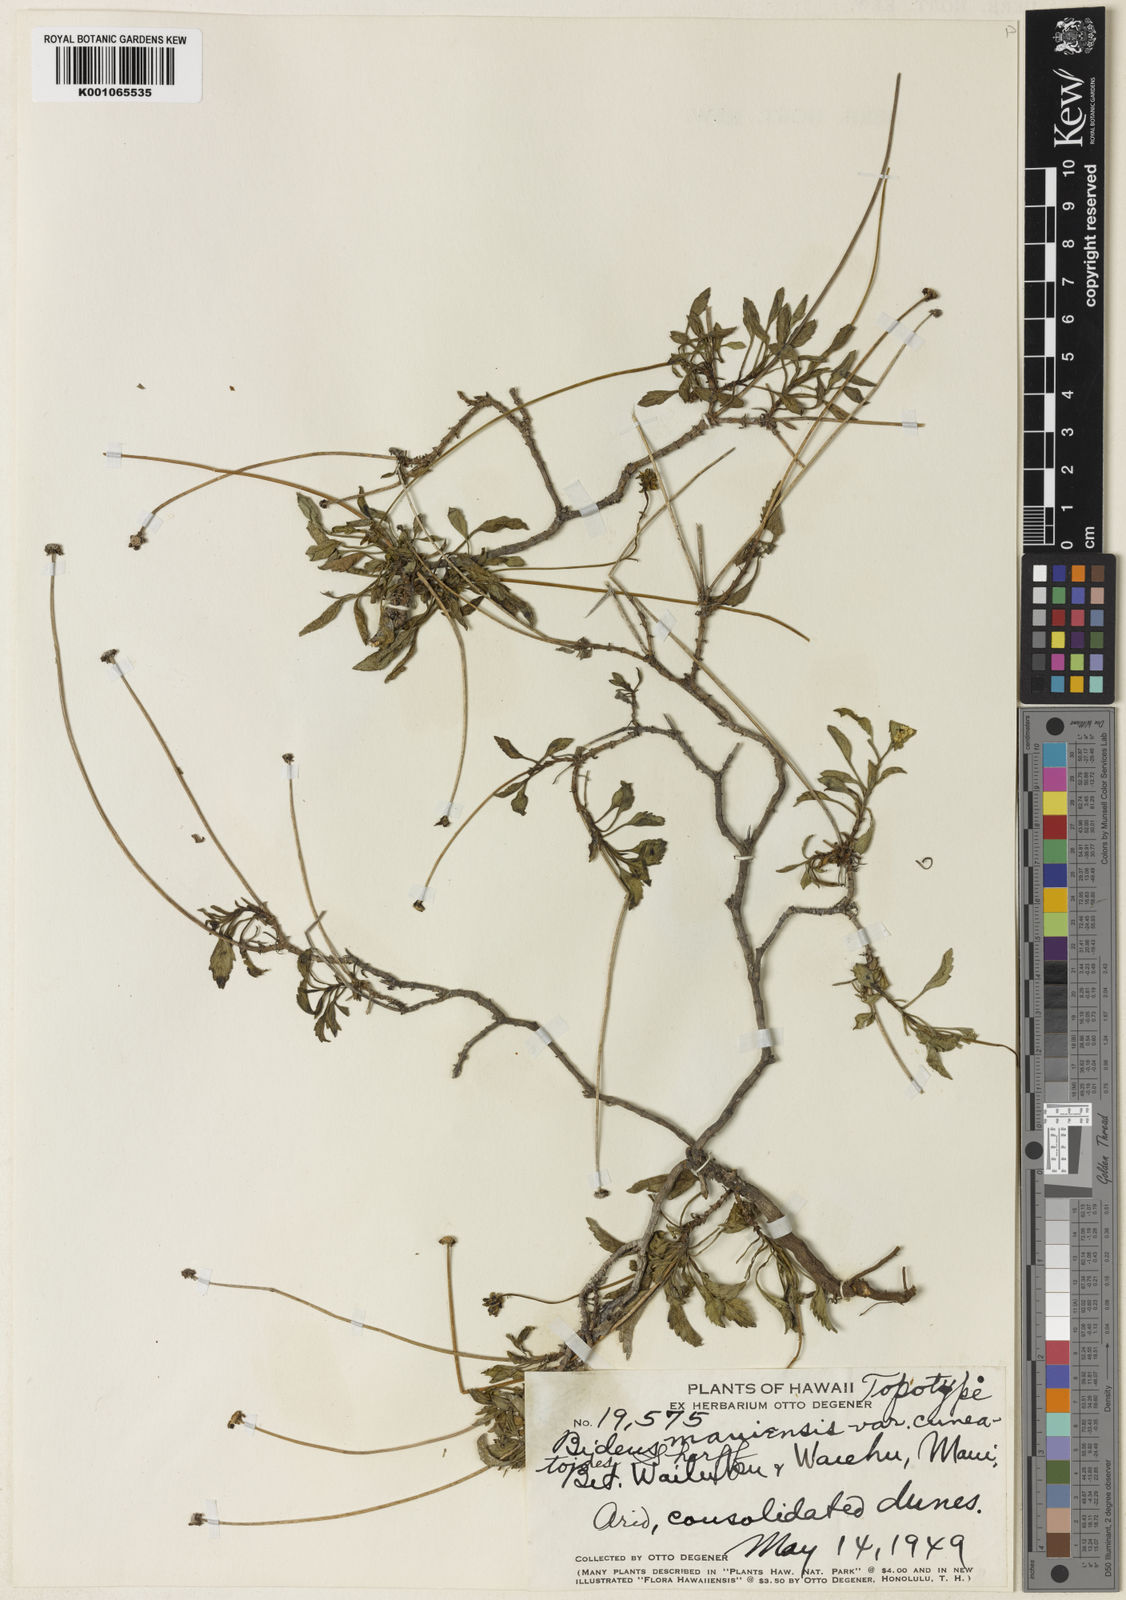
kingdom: Plantae
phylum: Tracheophyta
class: Magnoliopsida
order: Asterales
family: Asteraceae
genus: Bidens
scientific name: Bidens
